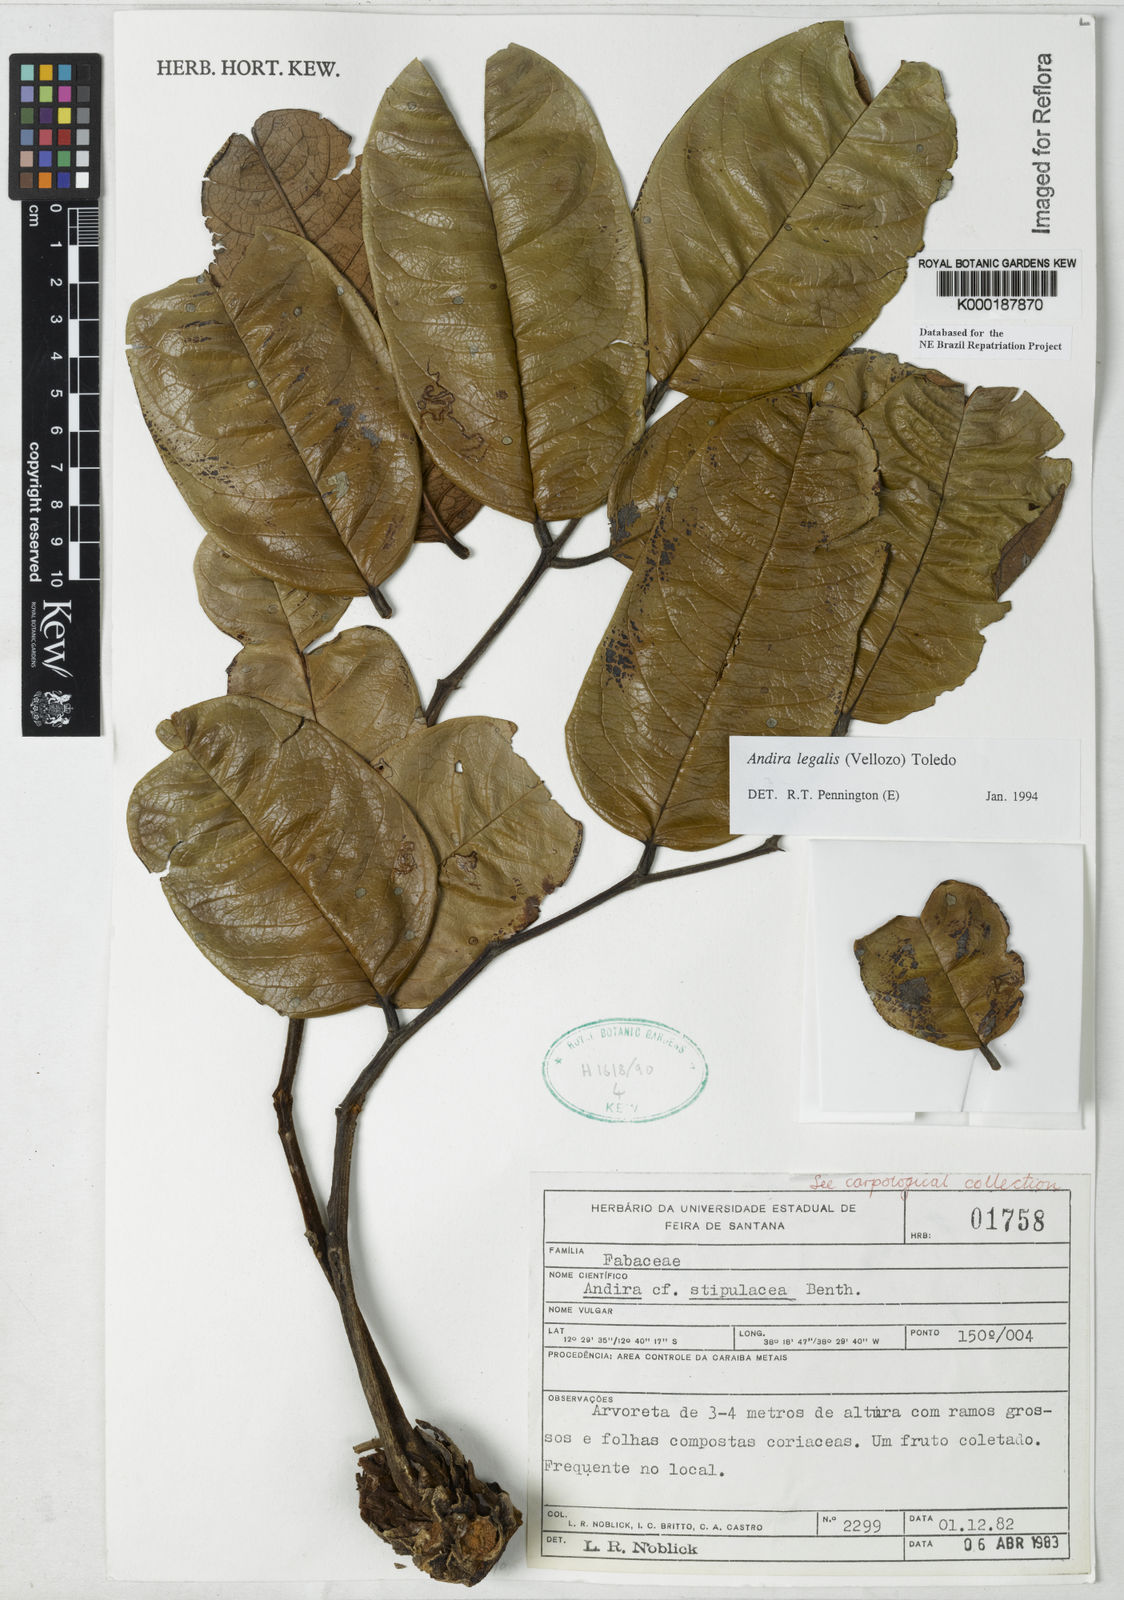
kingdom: Plantae
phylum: Tracheophyta
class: Magnoliopsida
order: Fabales
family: Fabaceae
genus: Andira
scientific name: Andira legalis
